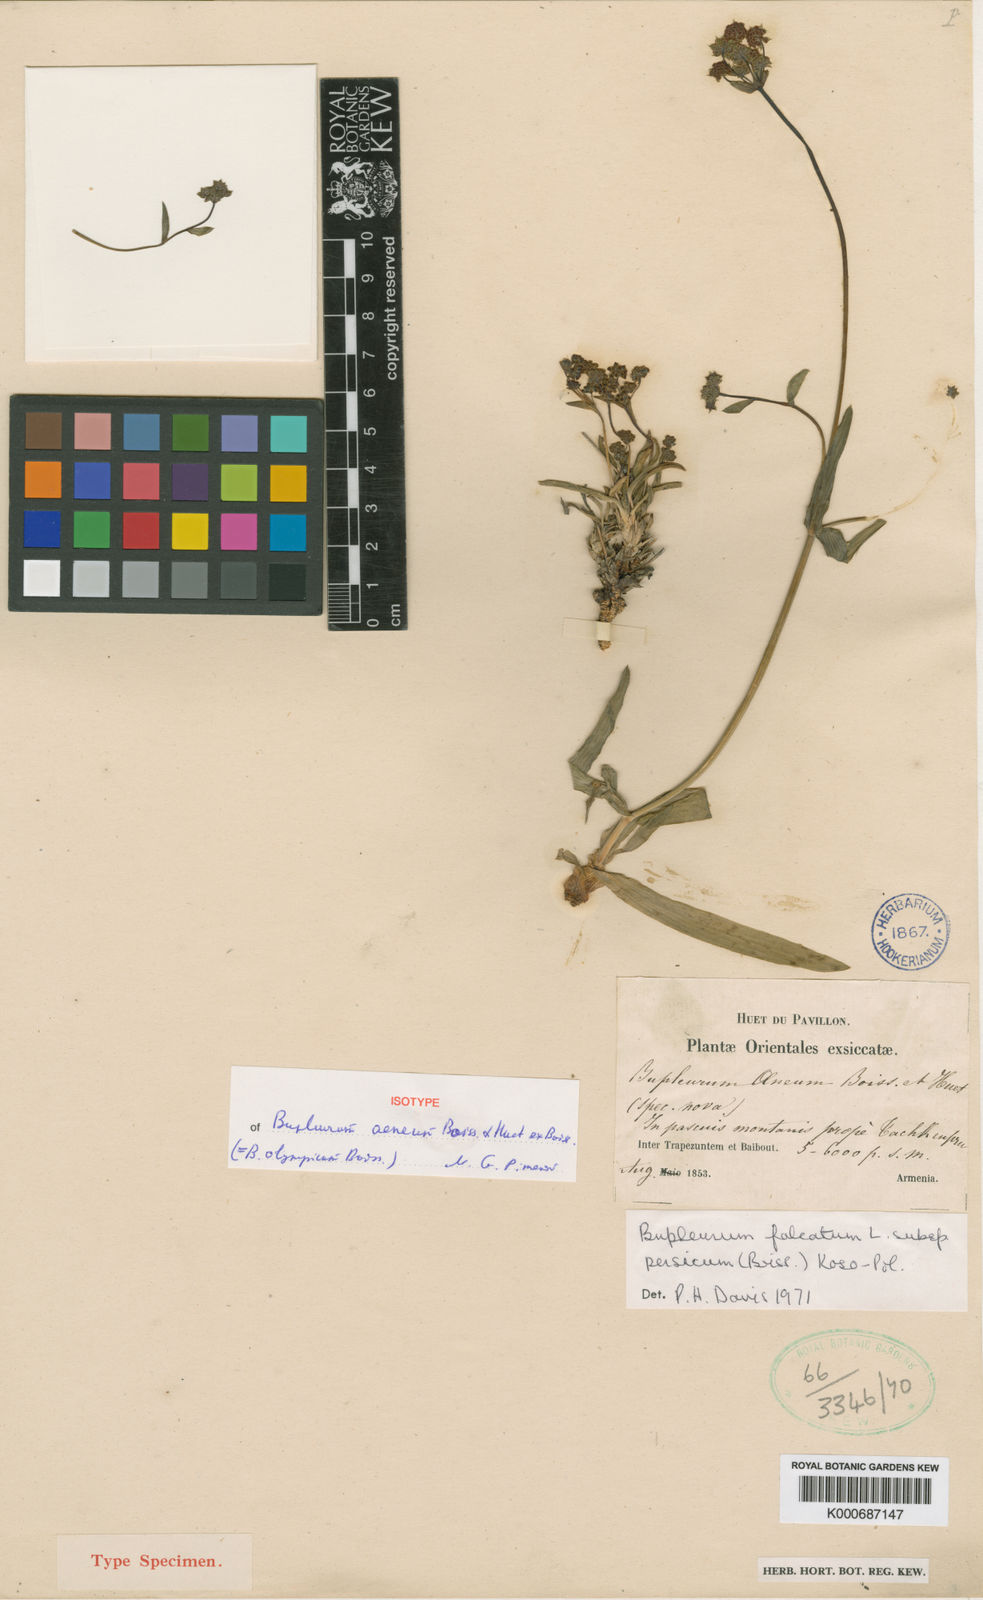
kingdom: Plantae
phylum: Tracheophyta
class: Magnoliopsida
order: Apiales
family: Apiaceae
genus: Bupleurum
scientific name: Bupleurum falcatum
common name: Sickle-leaved hare's-ear
